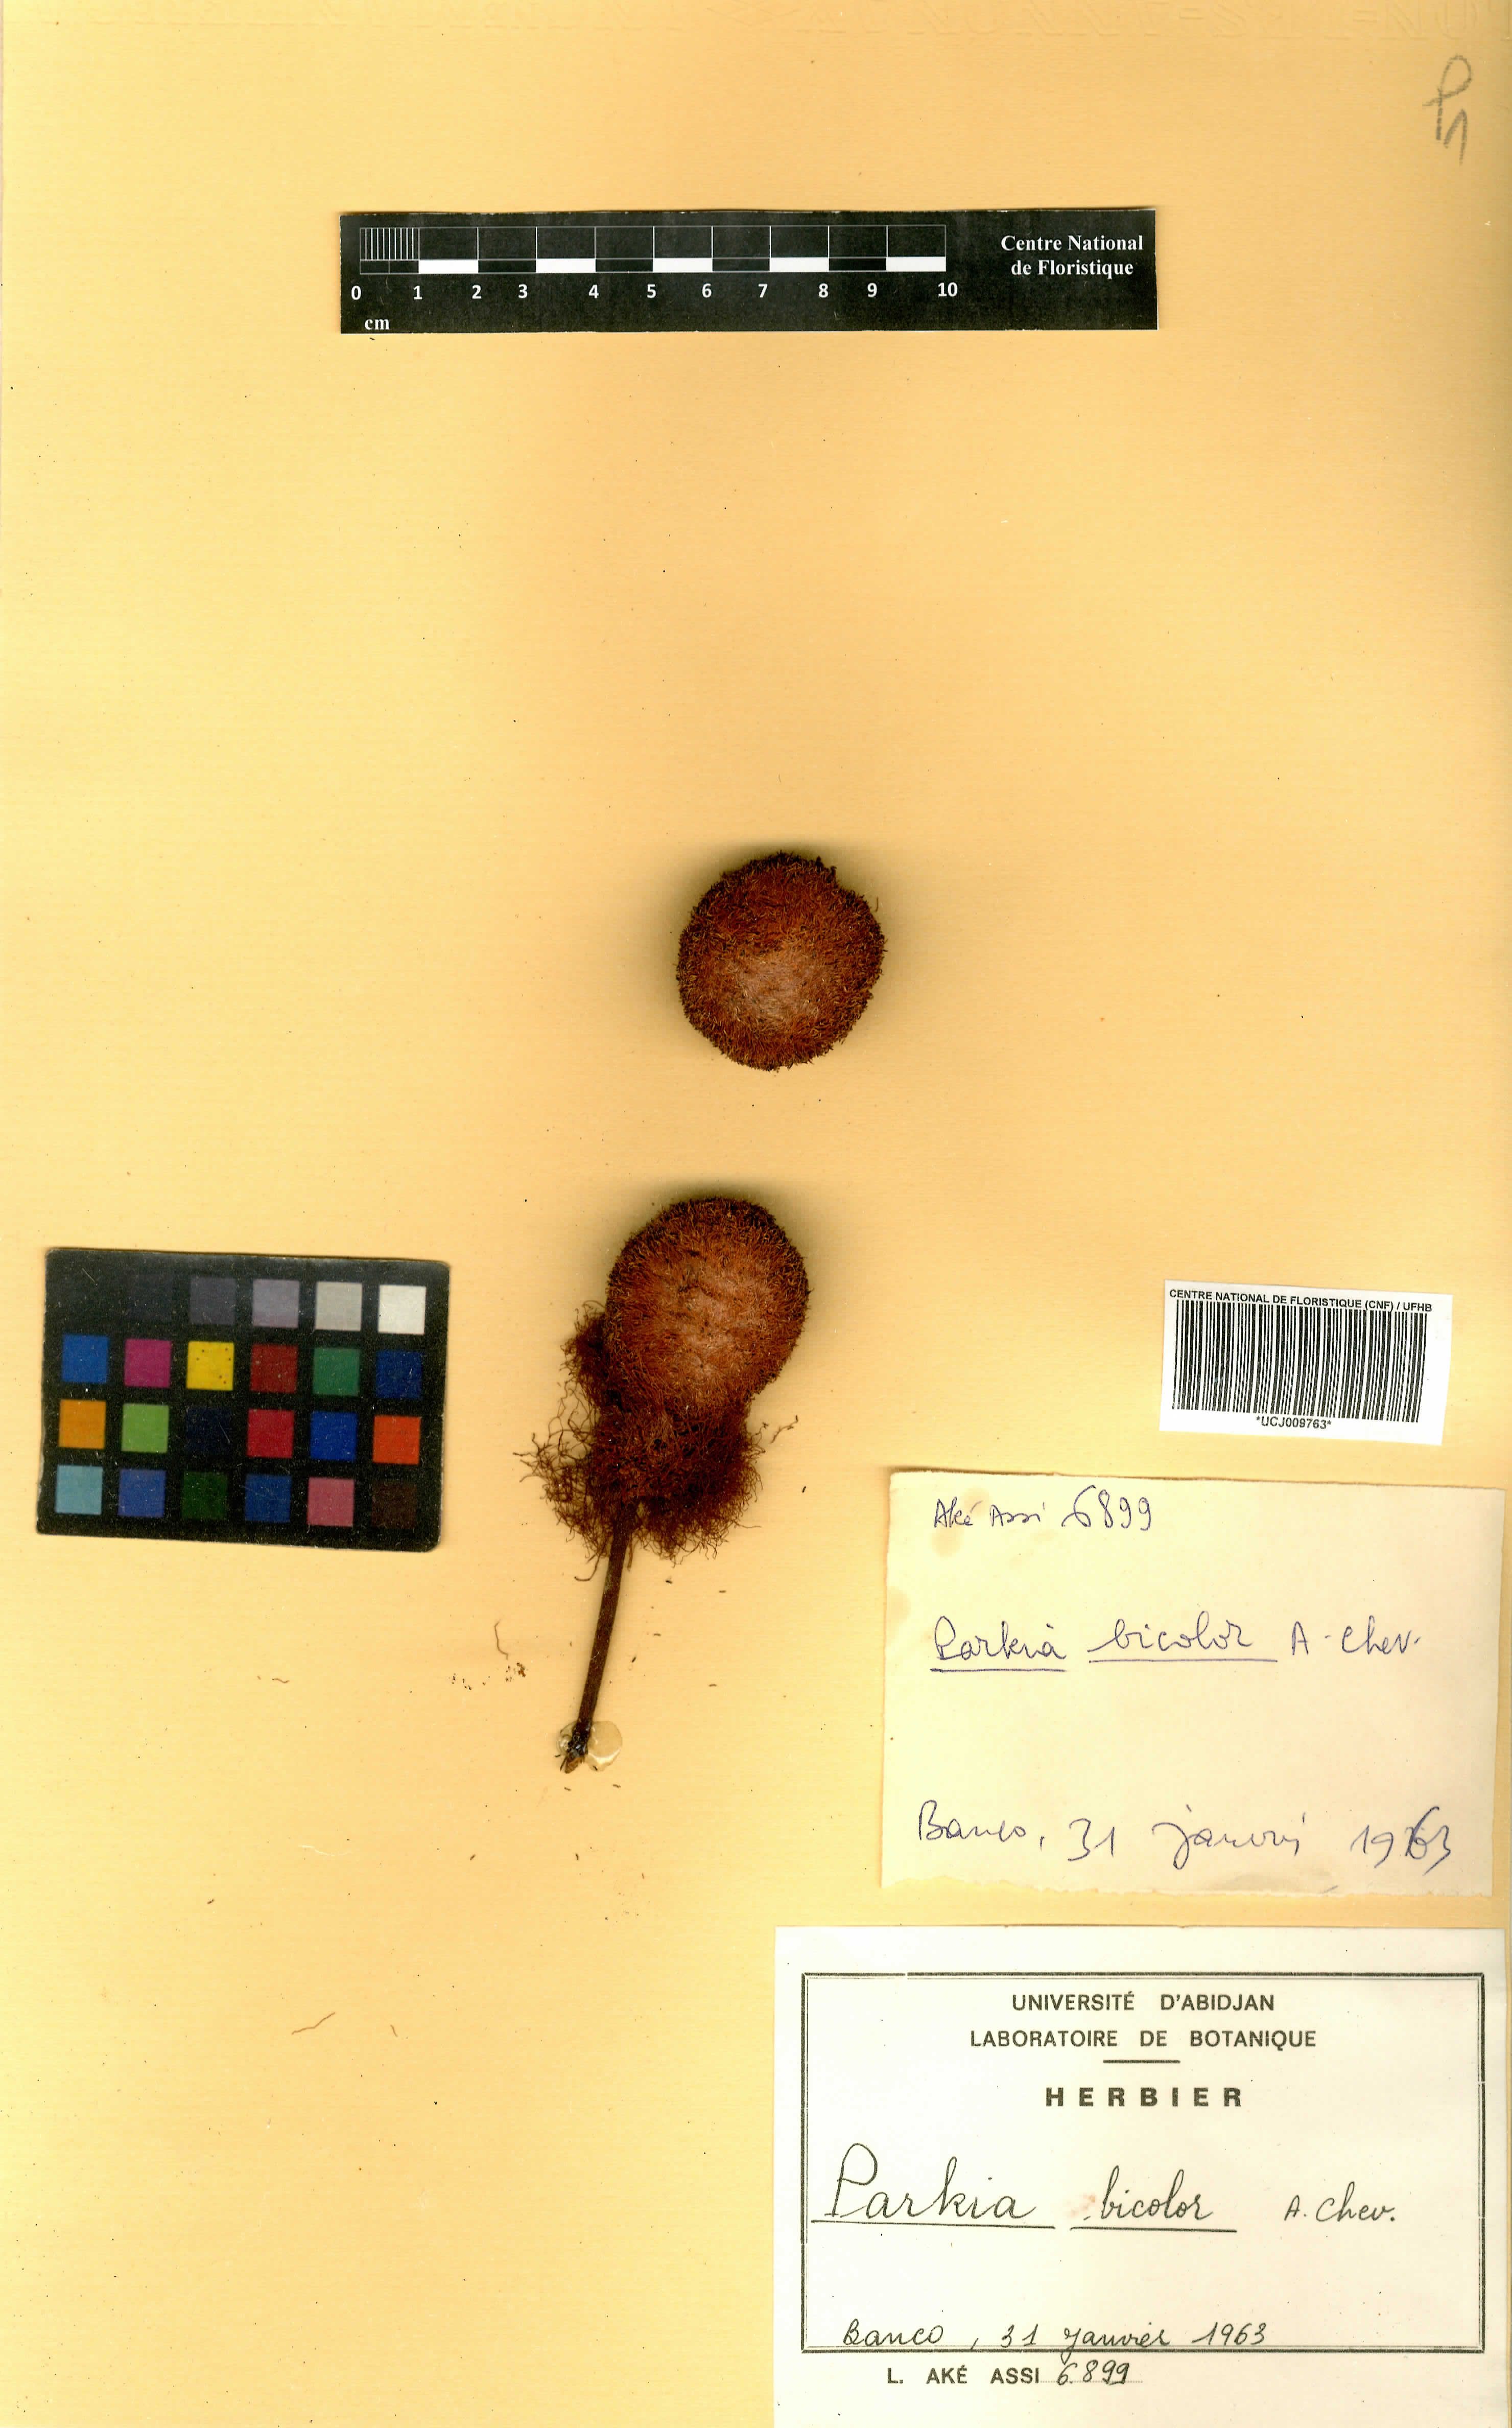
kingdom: Plantae
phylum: Tracheophyta
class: Magnoliopsida
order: Fabales
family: Fabaceae
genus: Parkia
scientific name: Parkia bicolor
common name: African locust-bean
